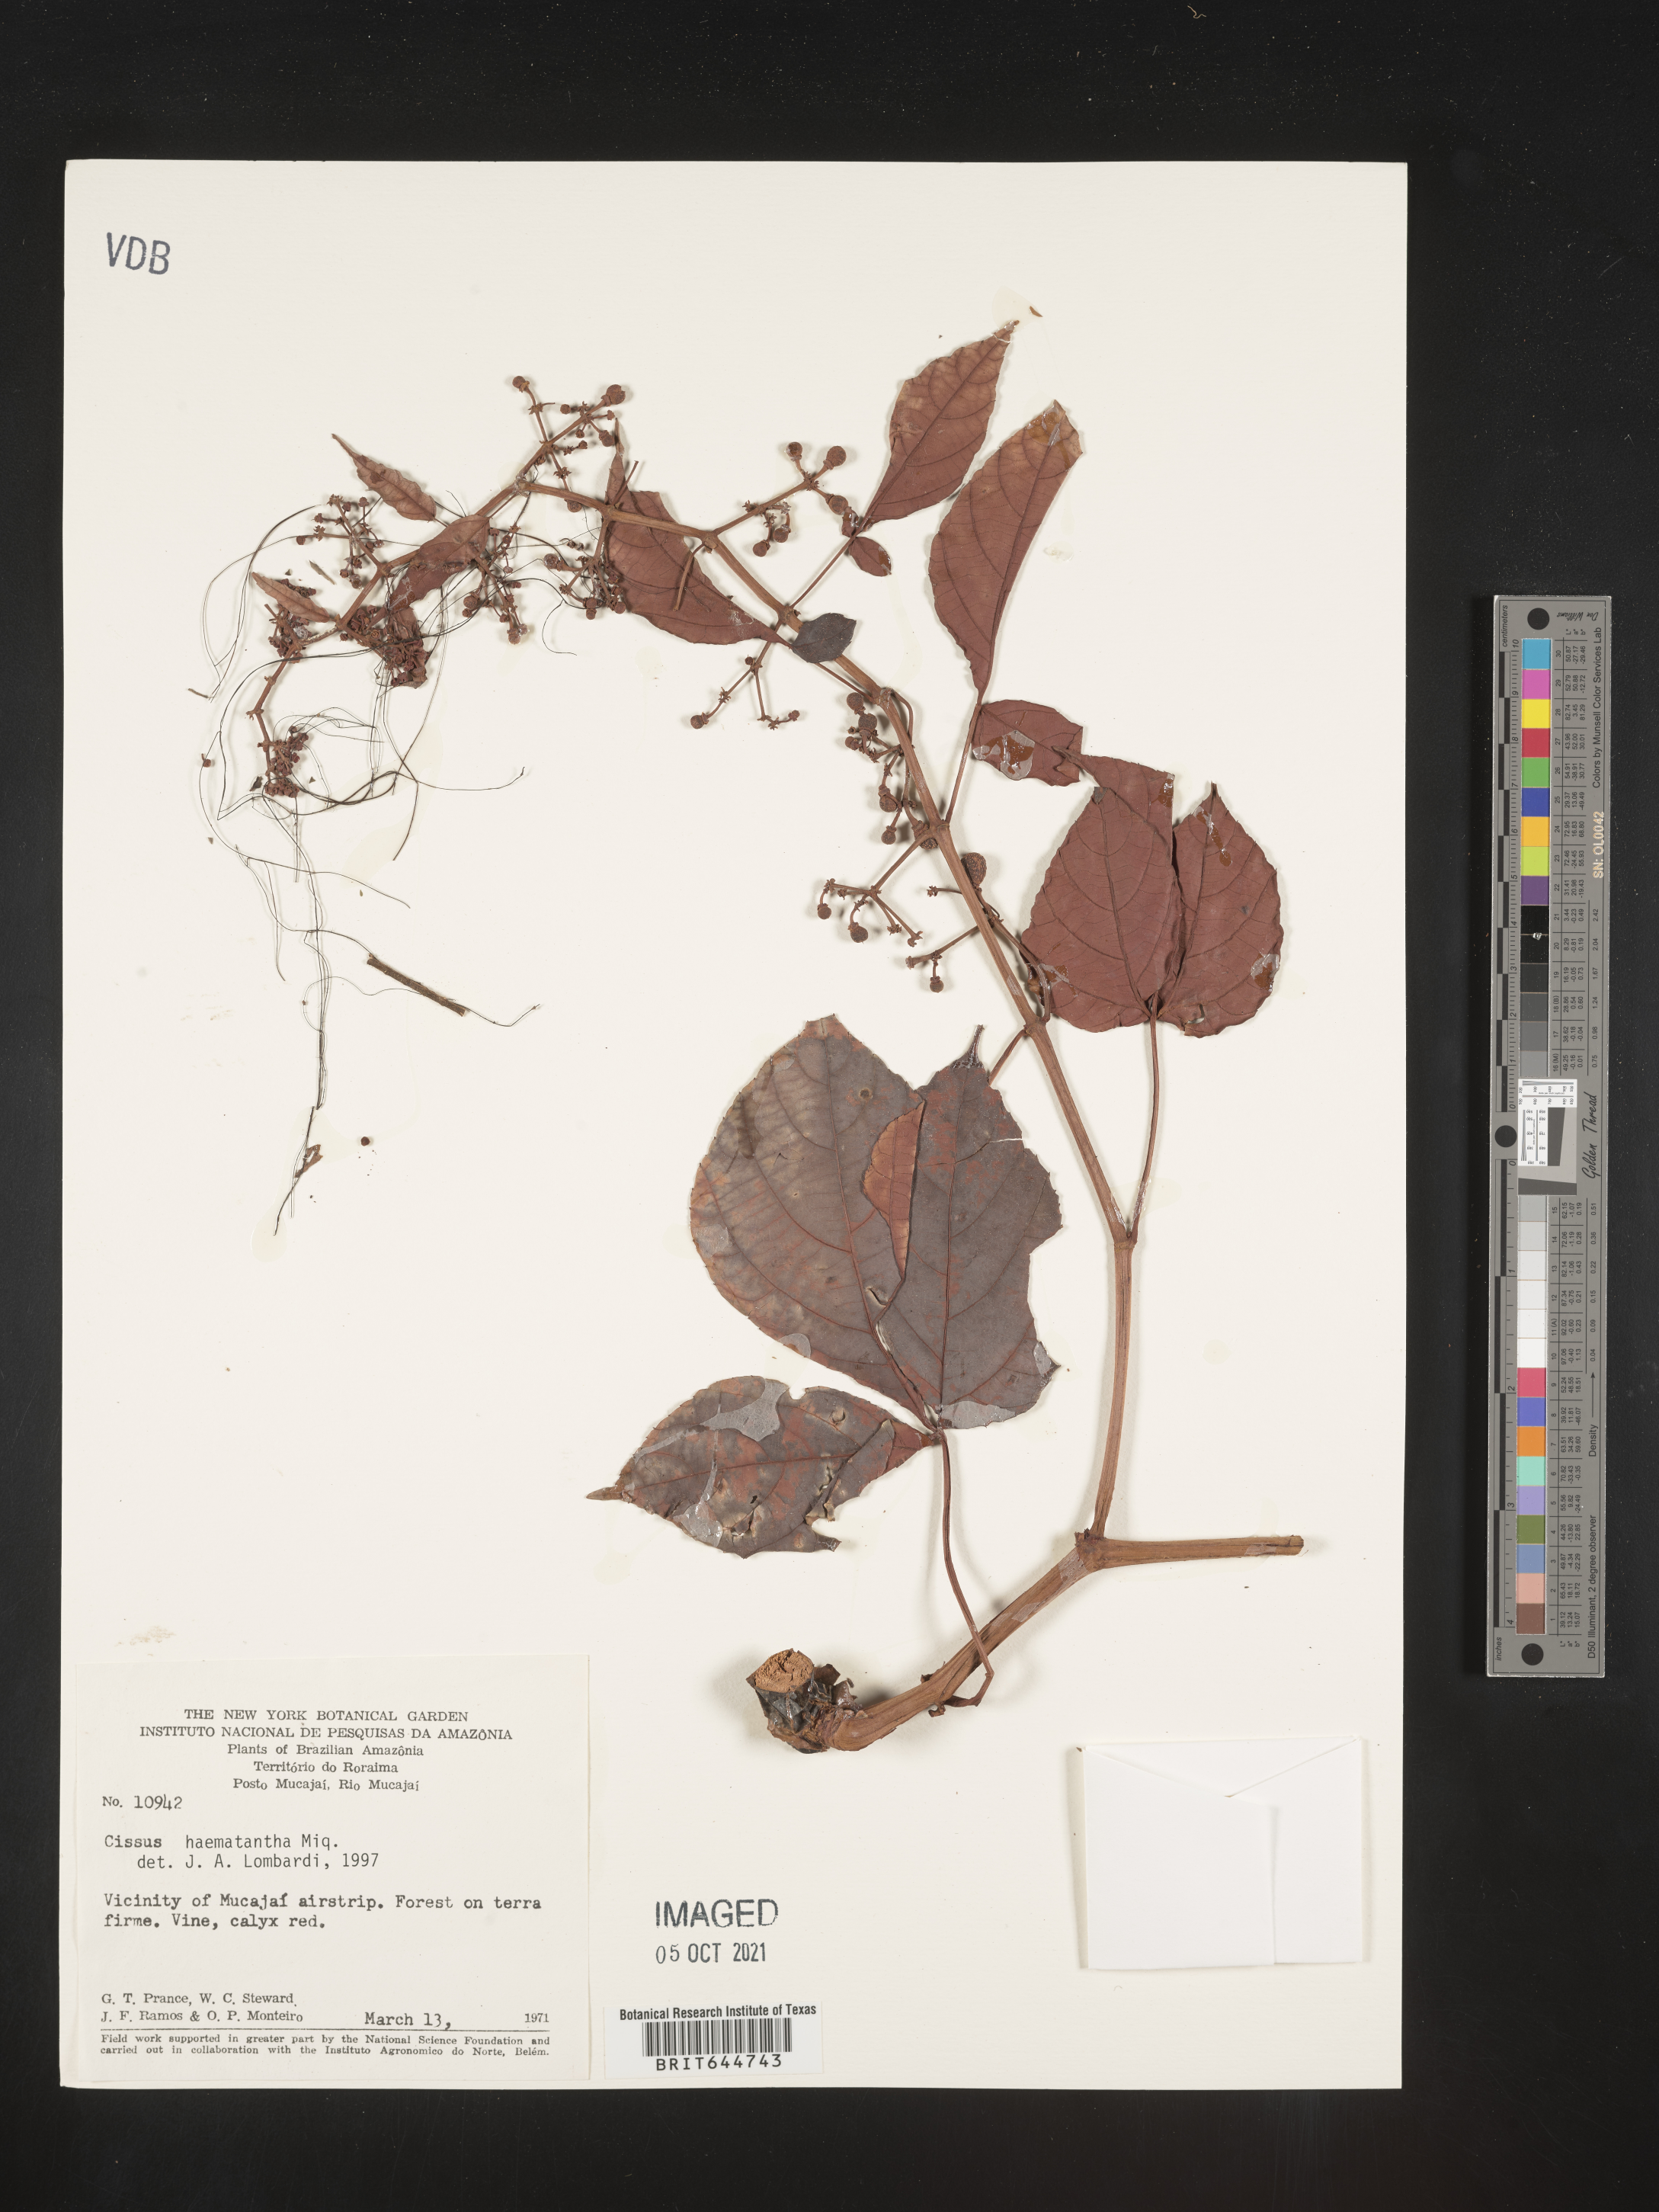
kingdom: Plantae
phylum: Tracheophyta
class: Magnoliopsida
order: Vitales
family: Vitaceae
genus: Cissus
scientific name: Cissus
